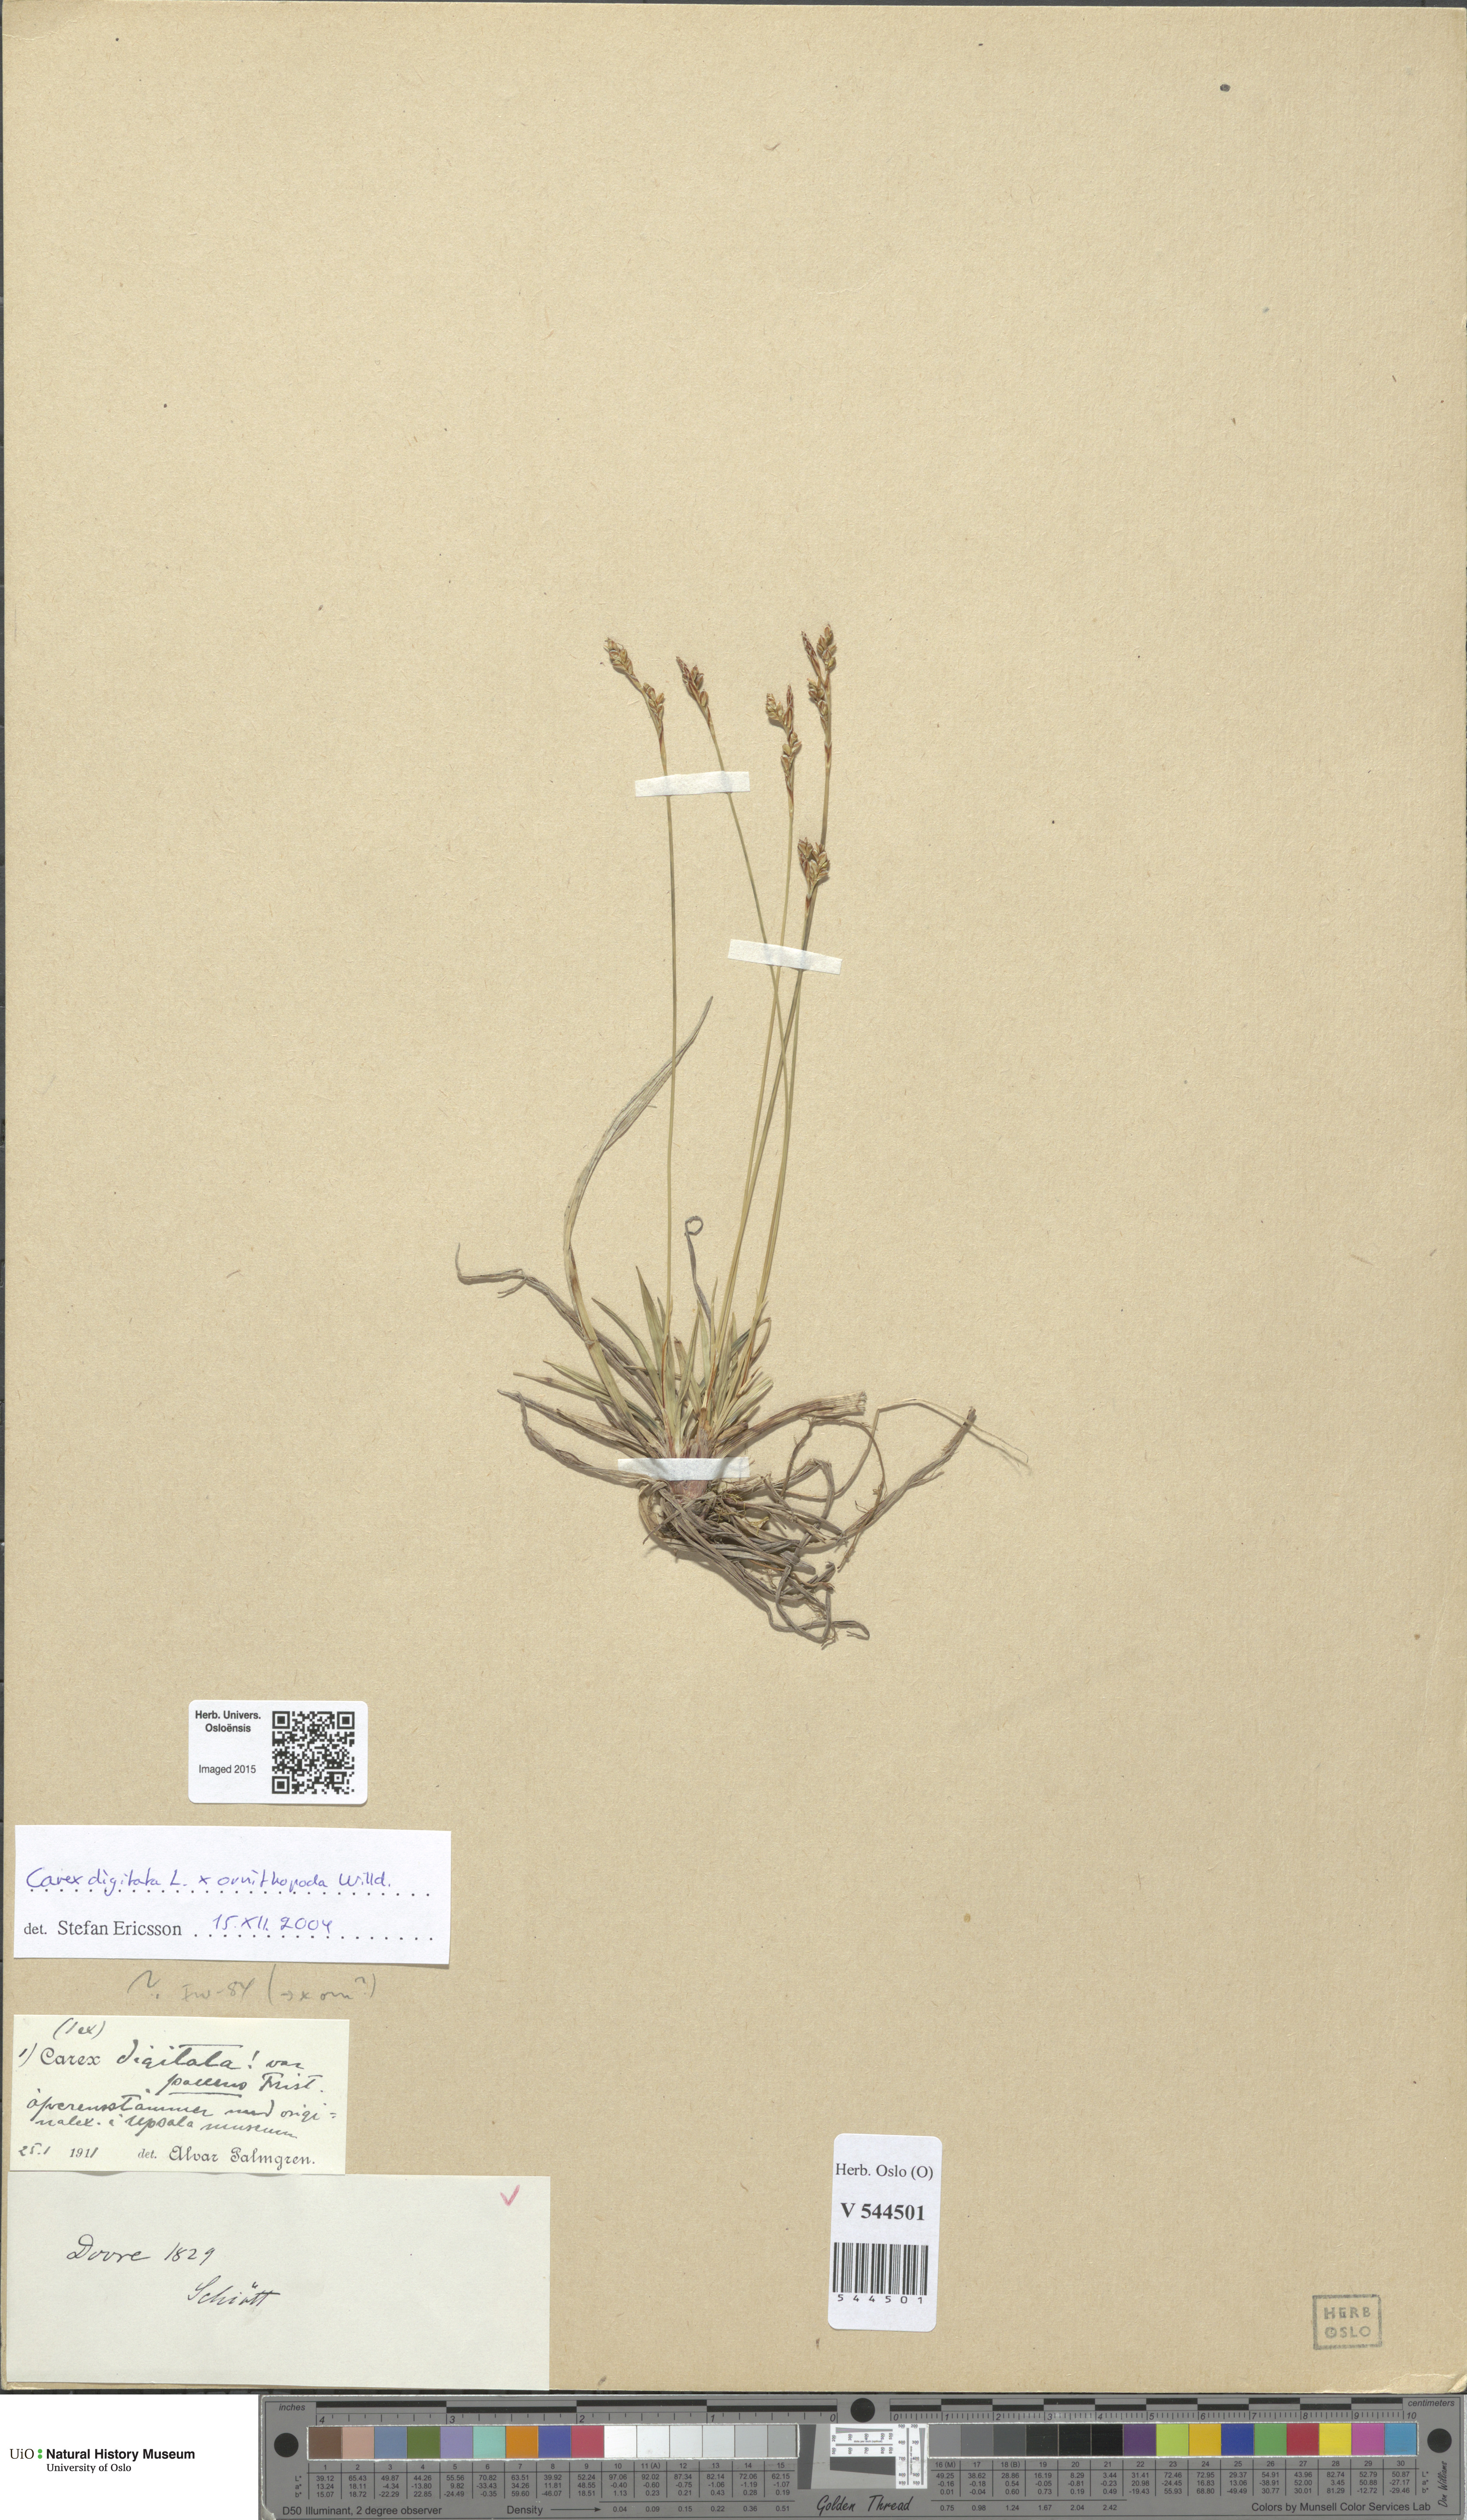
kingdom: Plantae
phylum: Tracheophyta
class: Liliopsida
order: Poales
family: Cyperaceae
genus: Carex
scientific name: Carex
